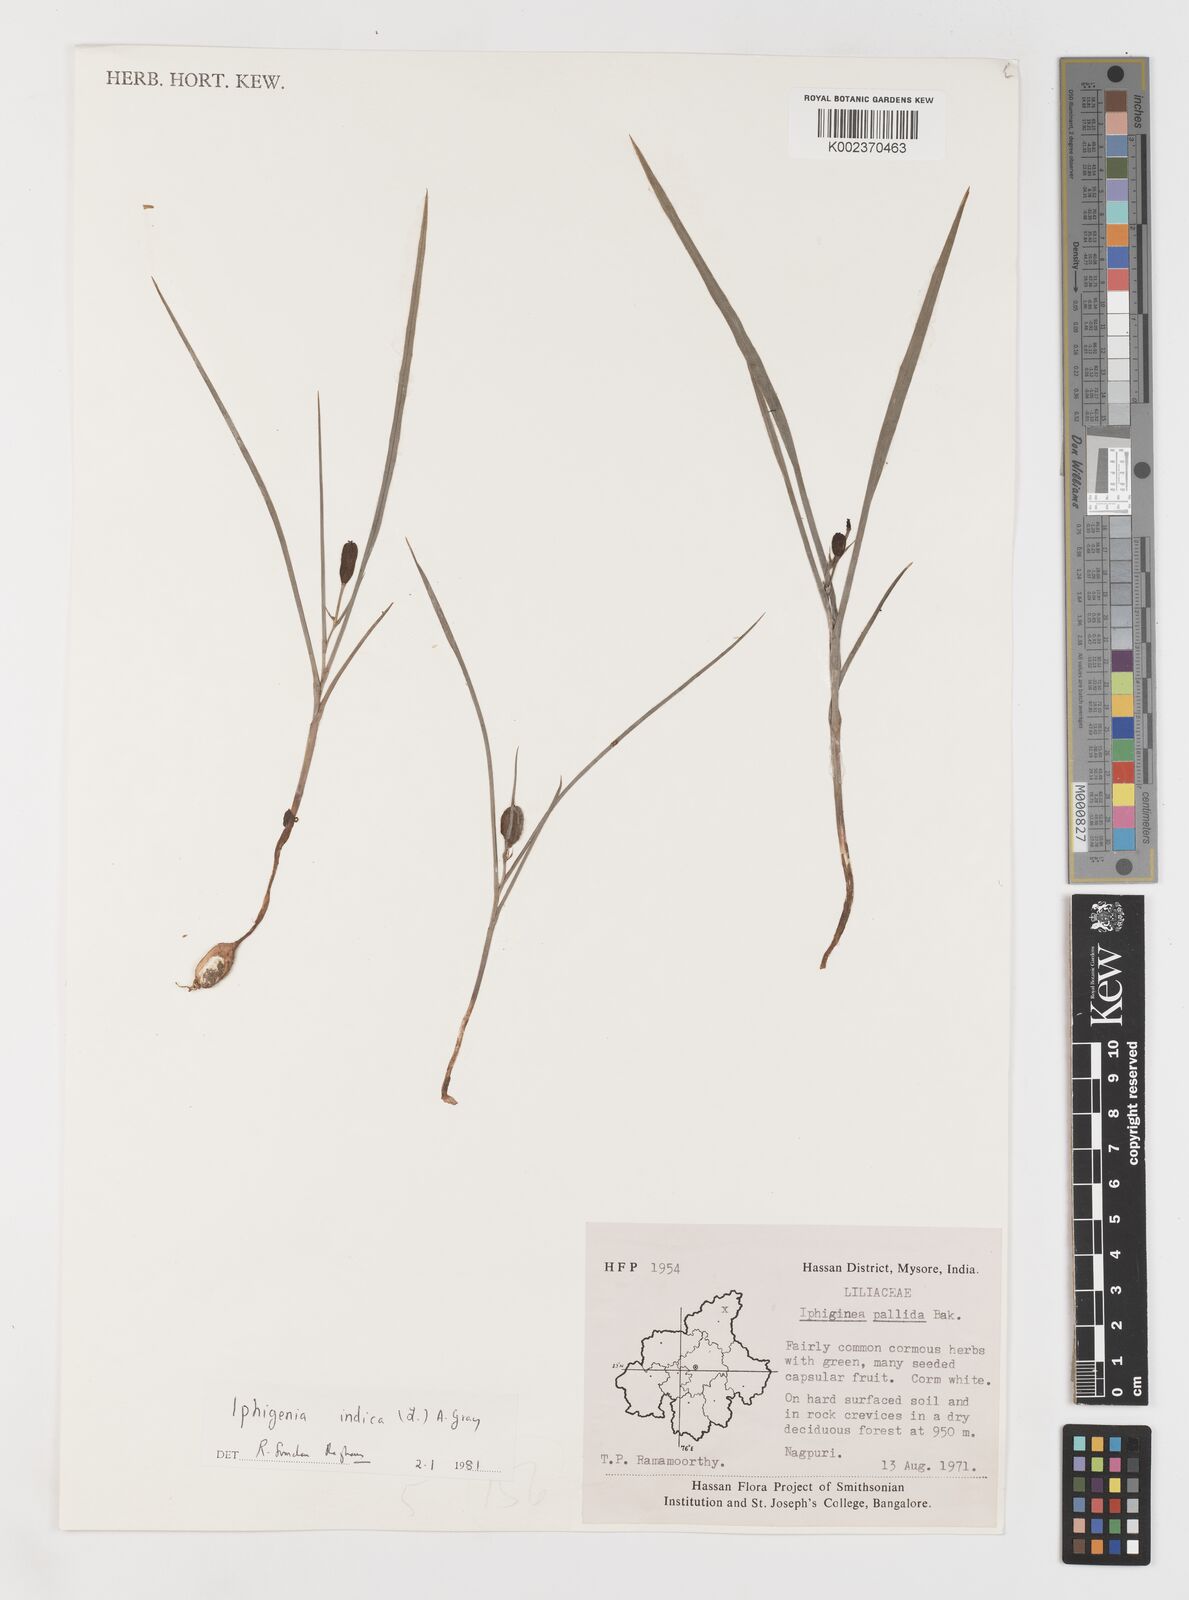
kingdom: Plantae
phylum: Tracheophyta
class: Liliopsida
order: Liliales
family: Colchicaceae
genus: Iphigenia
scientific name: Iphigenia indica
